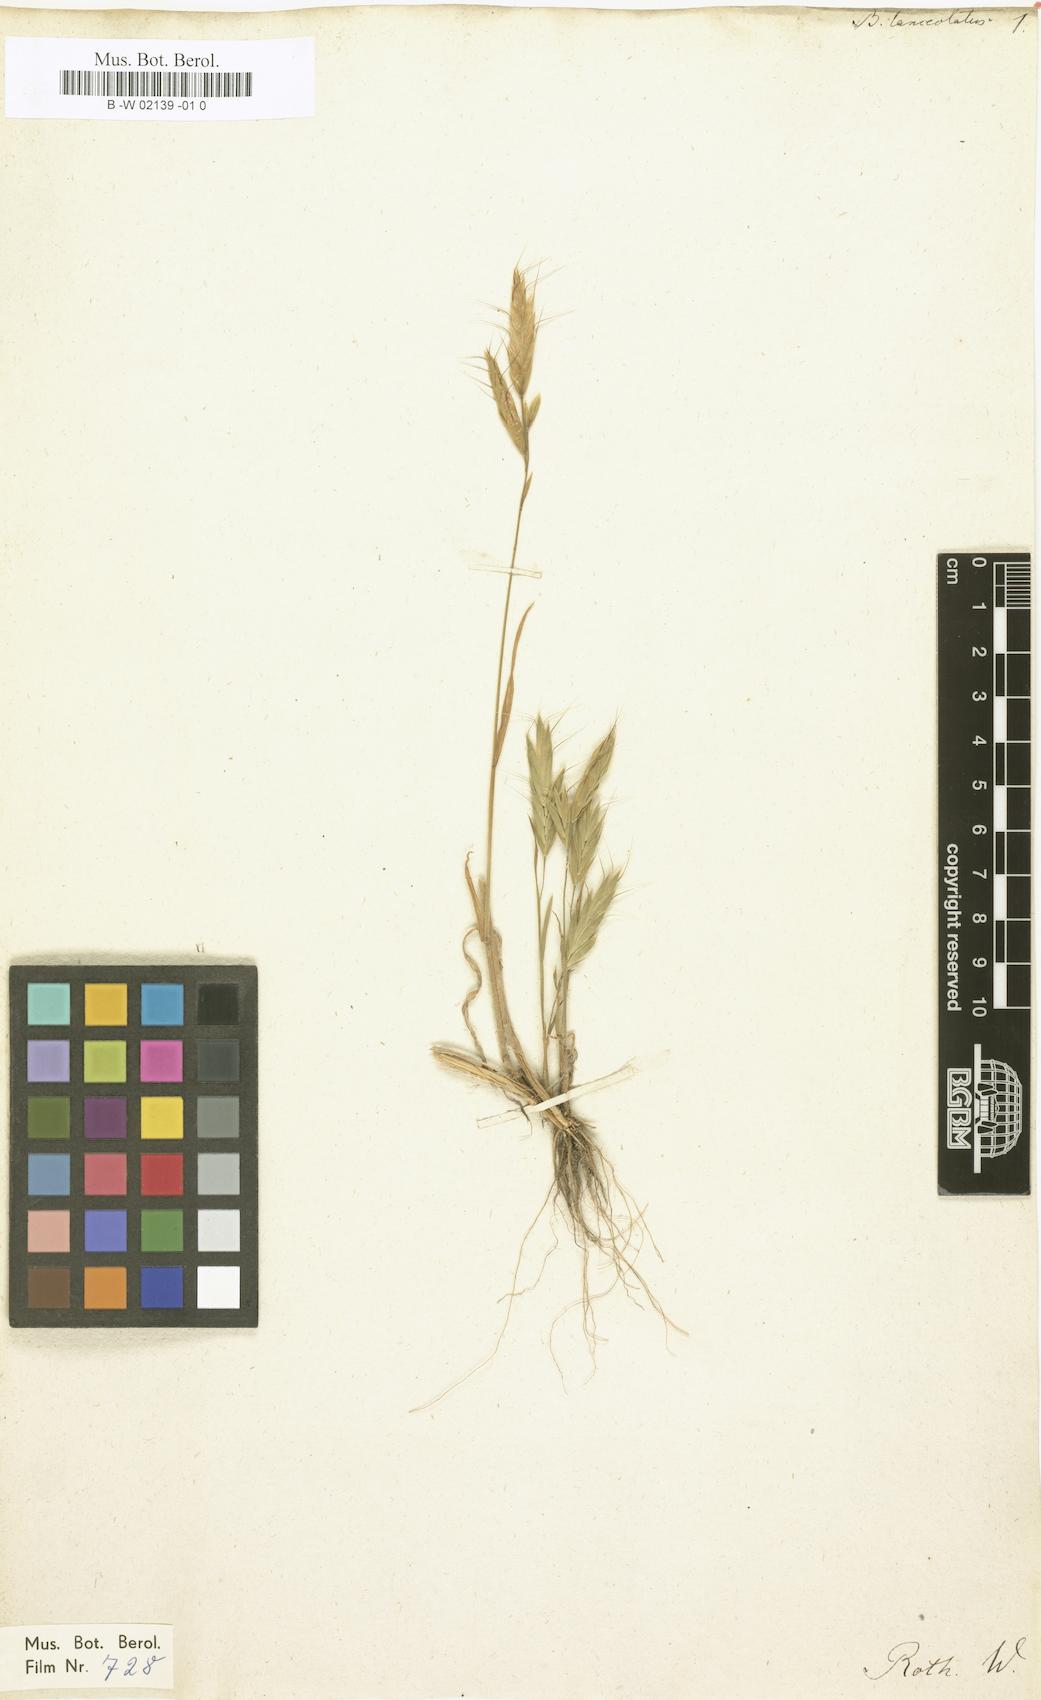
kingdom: Plantae
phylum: Tracheophyta
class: Liliopsida
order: Poales
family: Poaceae
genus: Bromus
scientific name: Bromus lanceolatus
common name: Mediterranean brome
